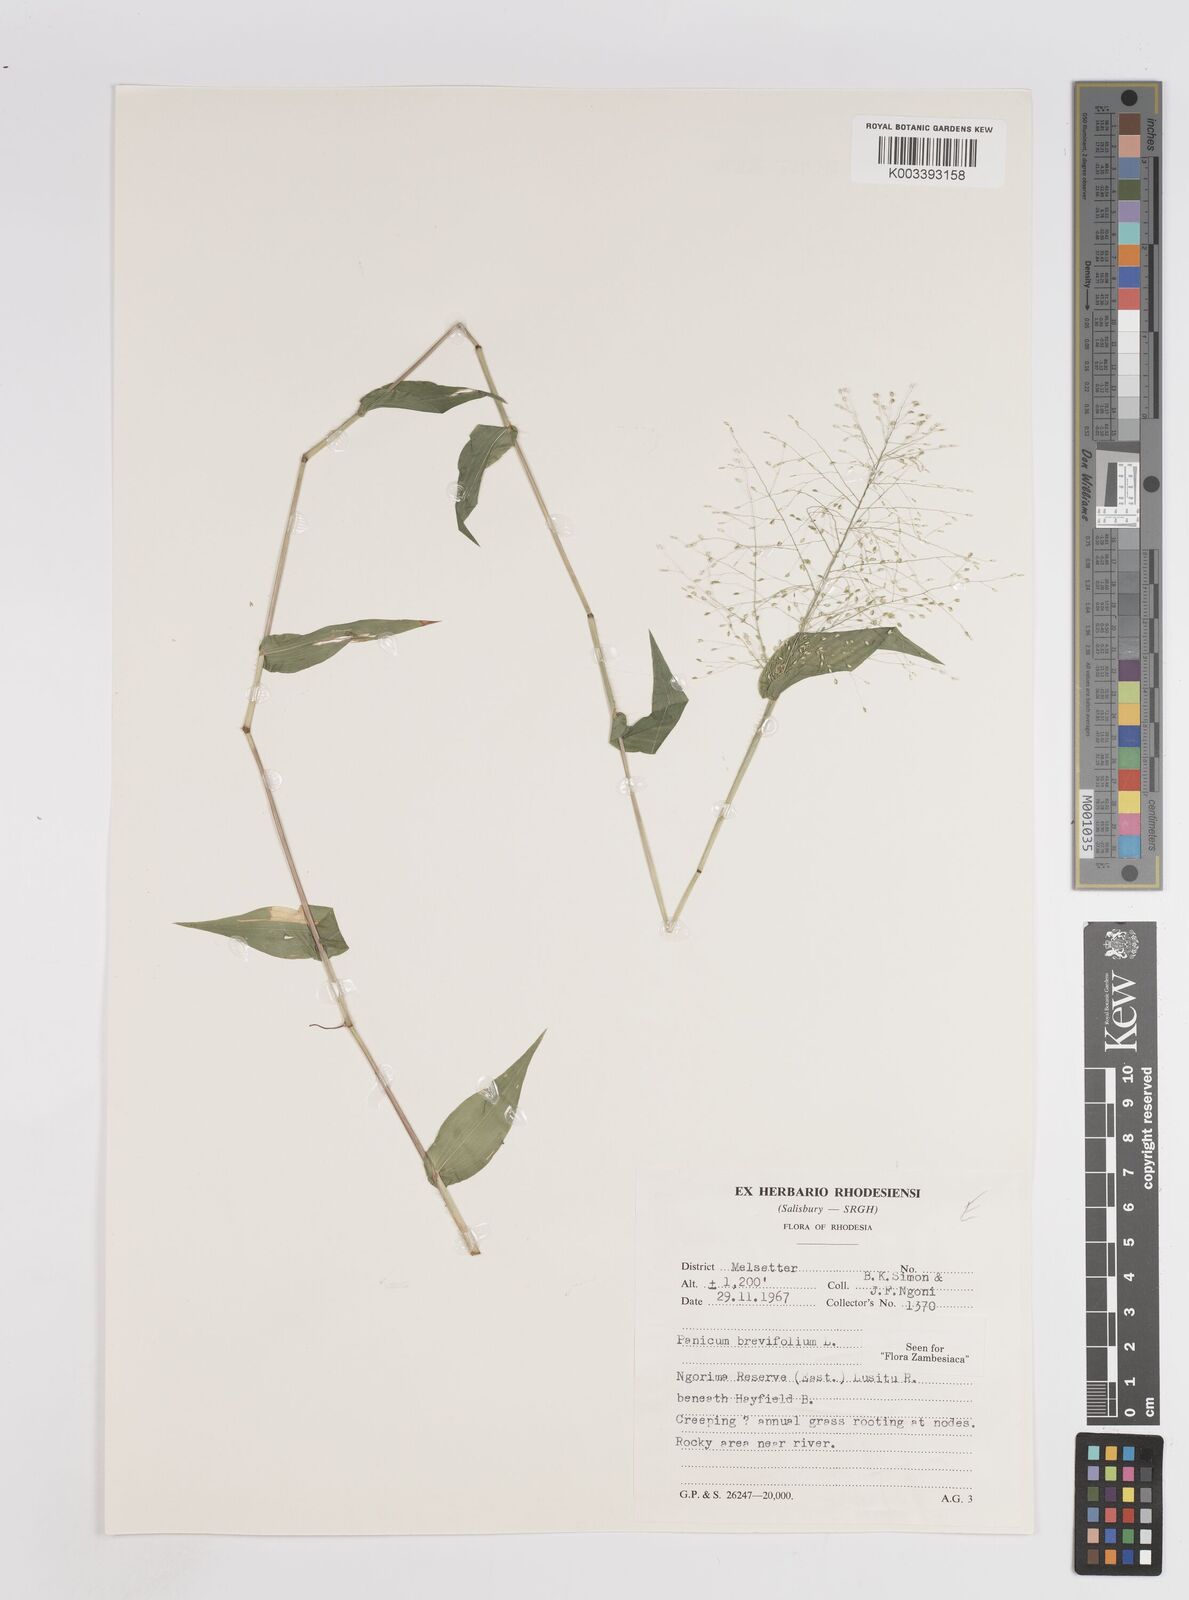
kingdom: Plantae
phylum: Tracheophyta
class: Liliopsida
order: Poales
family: Poaceae
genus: Panicum
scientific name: Panicum brevifolium
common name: Shortleaf panic grass
